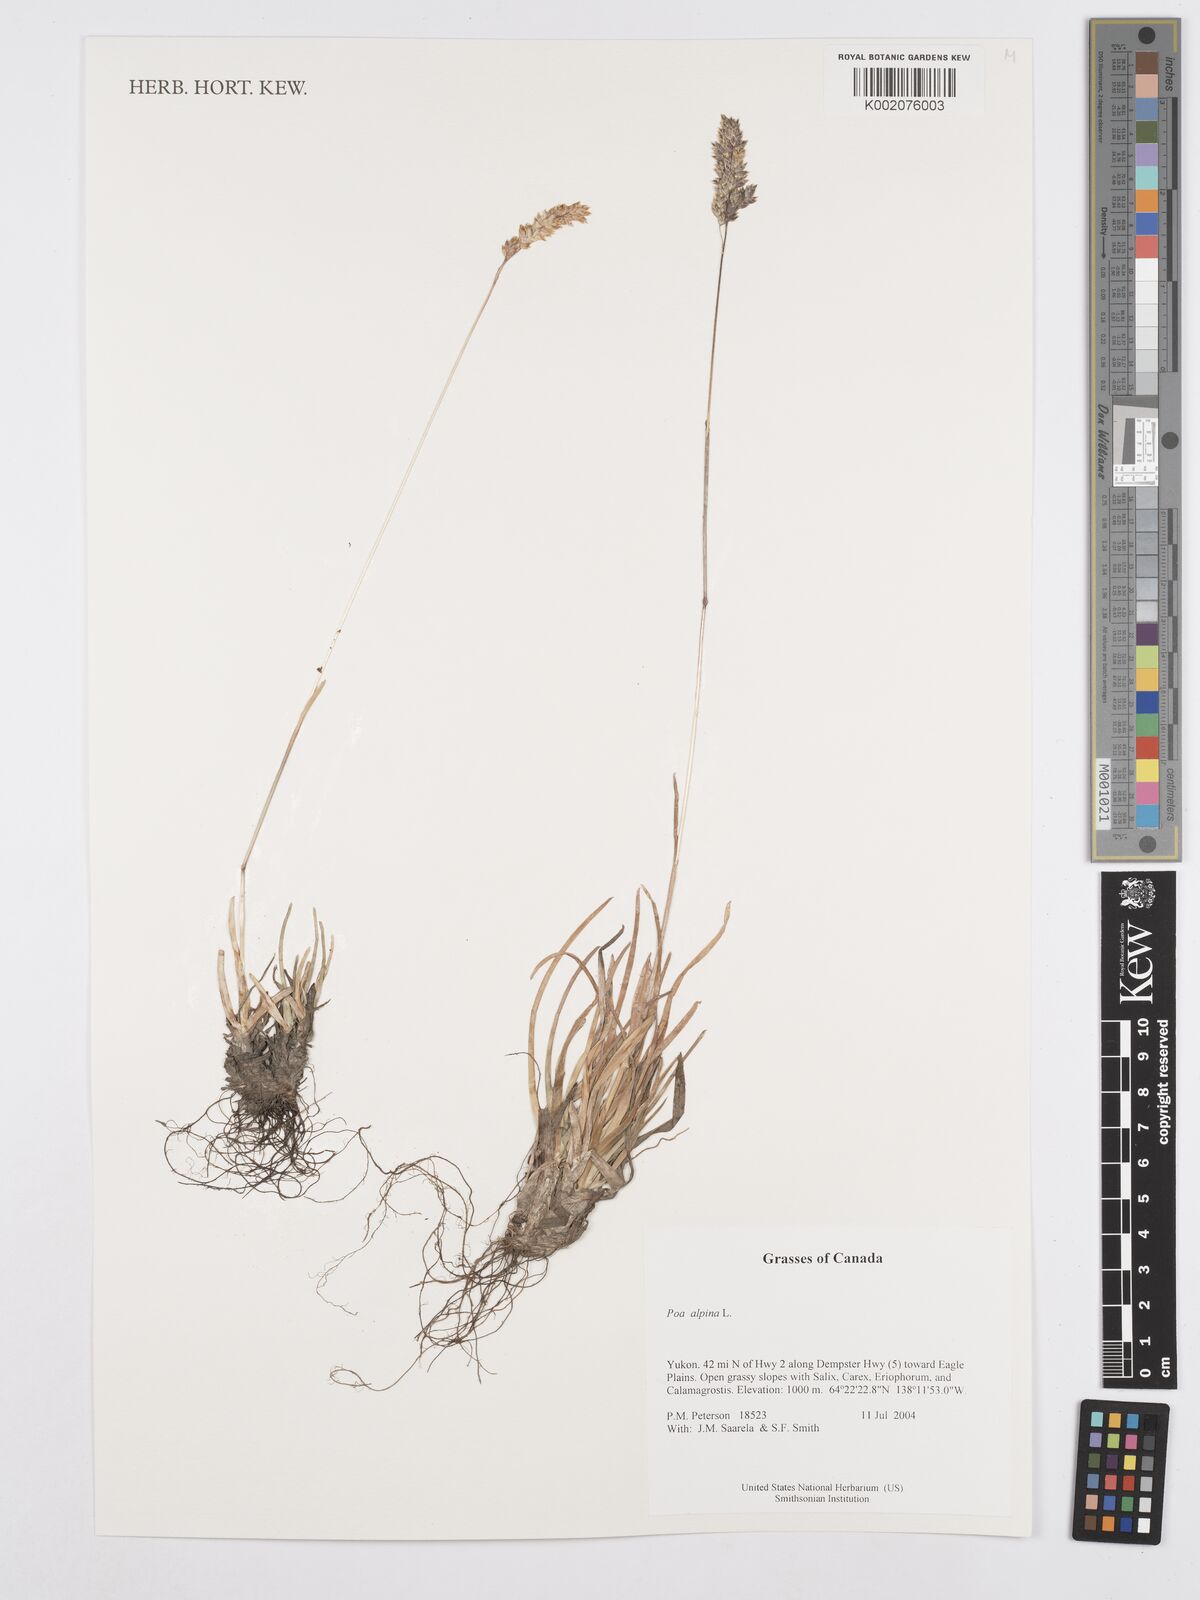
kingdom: Plantae
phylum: Tracheophyta
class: Liliopsida
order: Poales
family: Poaceae
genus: Poa
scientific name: Poa alpina
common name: Alpine bluegrass
